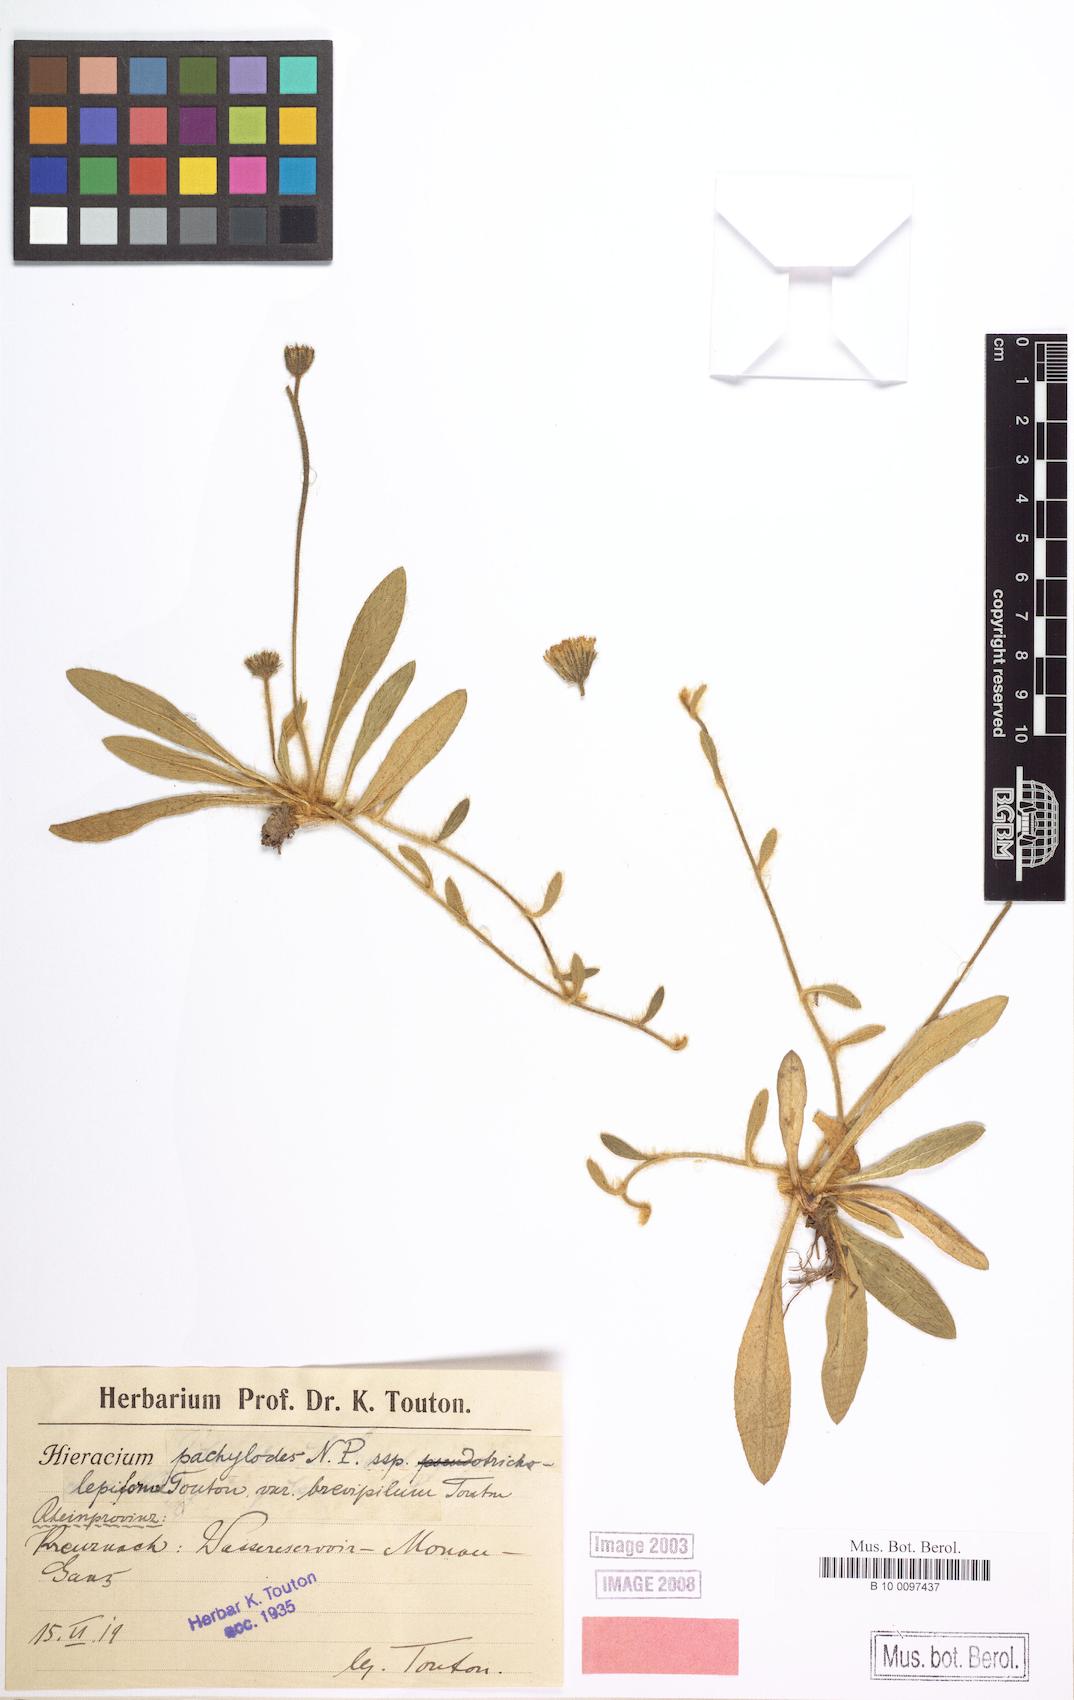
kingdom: Plantae
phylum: Tracheophyta
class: Magnoliopsida
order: Asterales
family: Asteraceae
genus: Pilosella
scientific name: Pilosella longisquama
